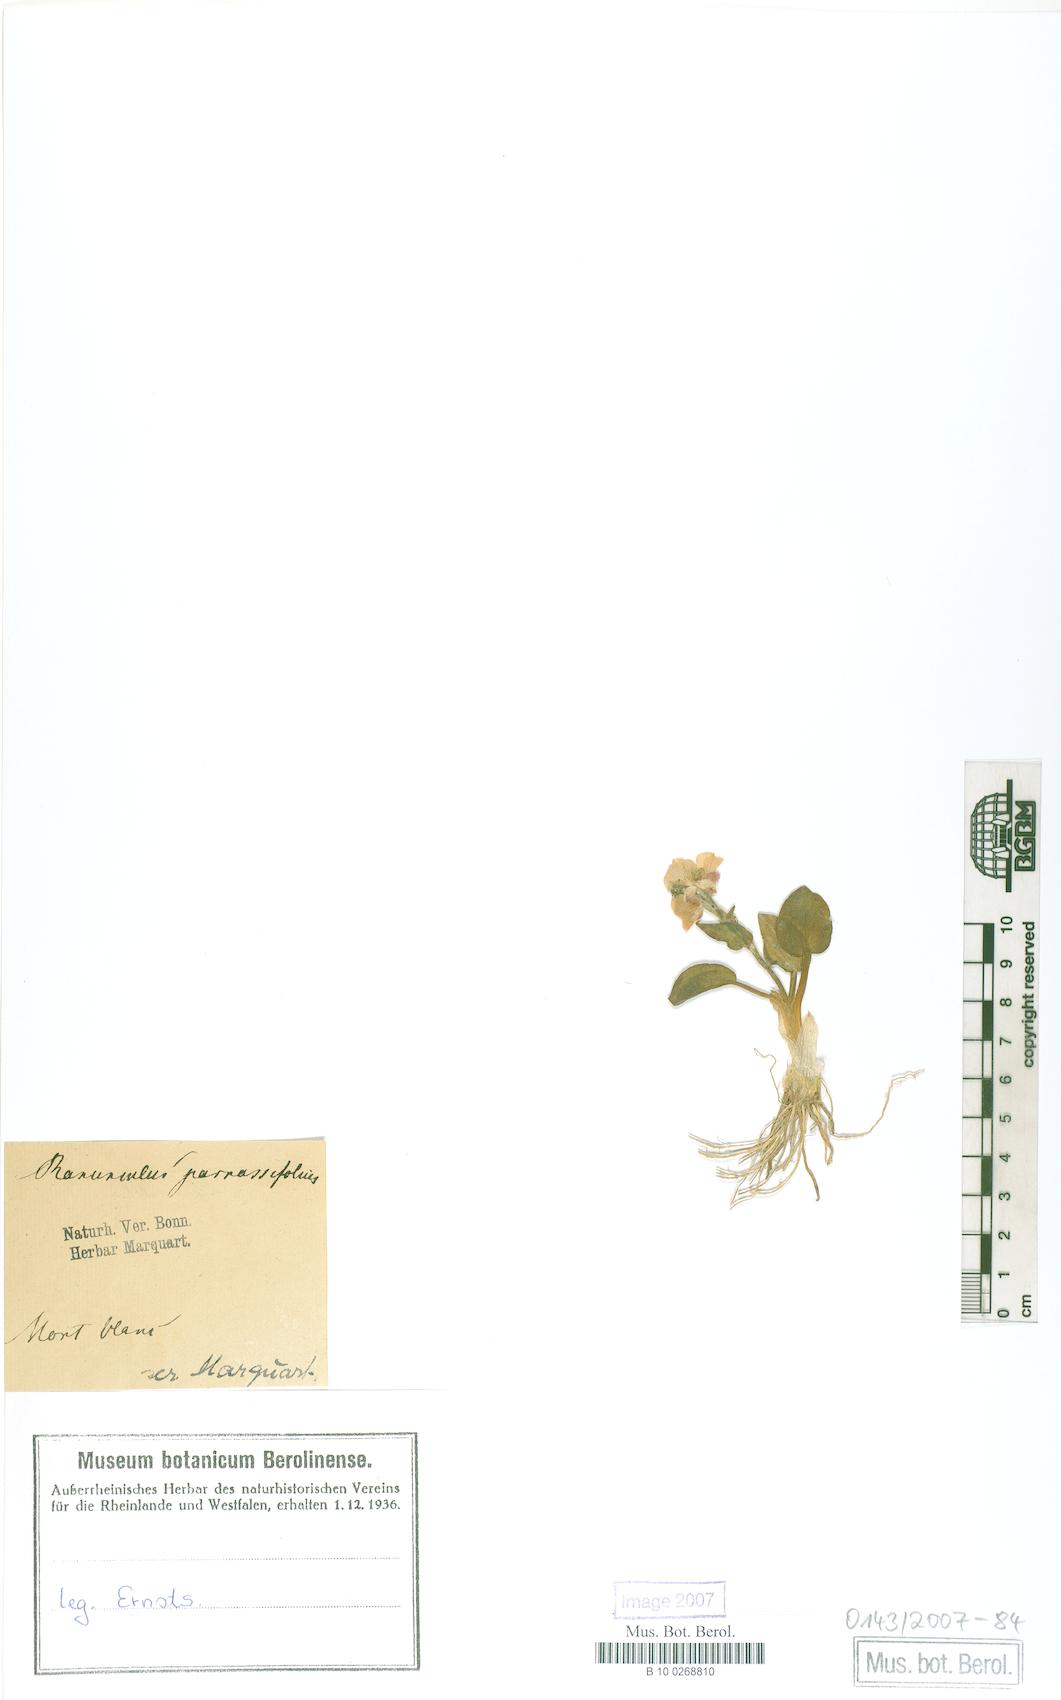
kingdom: Plantae
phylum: Tracheophyta
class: Magnoliopsida
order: Ranunculales
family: Ranunculaceae
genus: Ranunculus
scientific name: Ranunculus parnassiifolius
